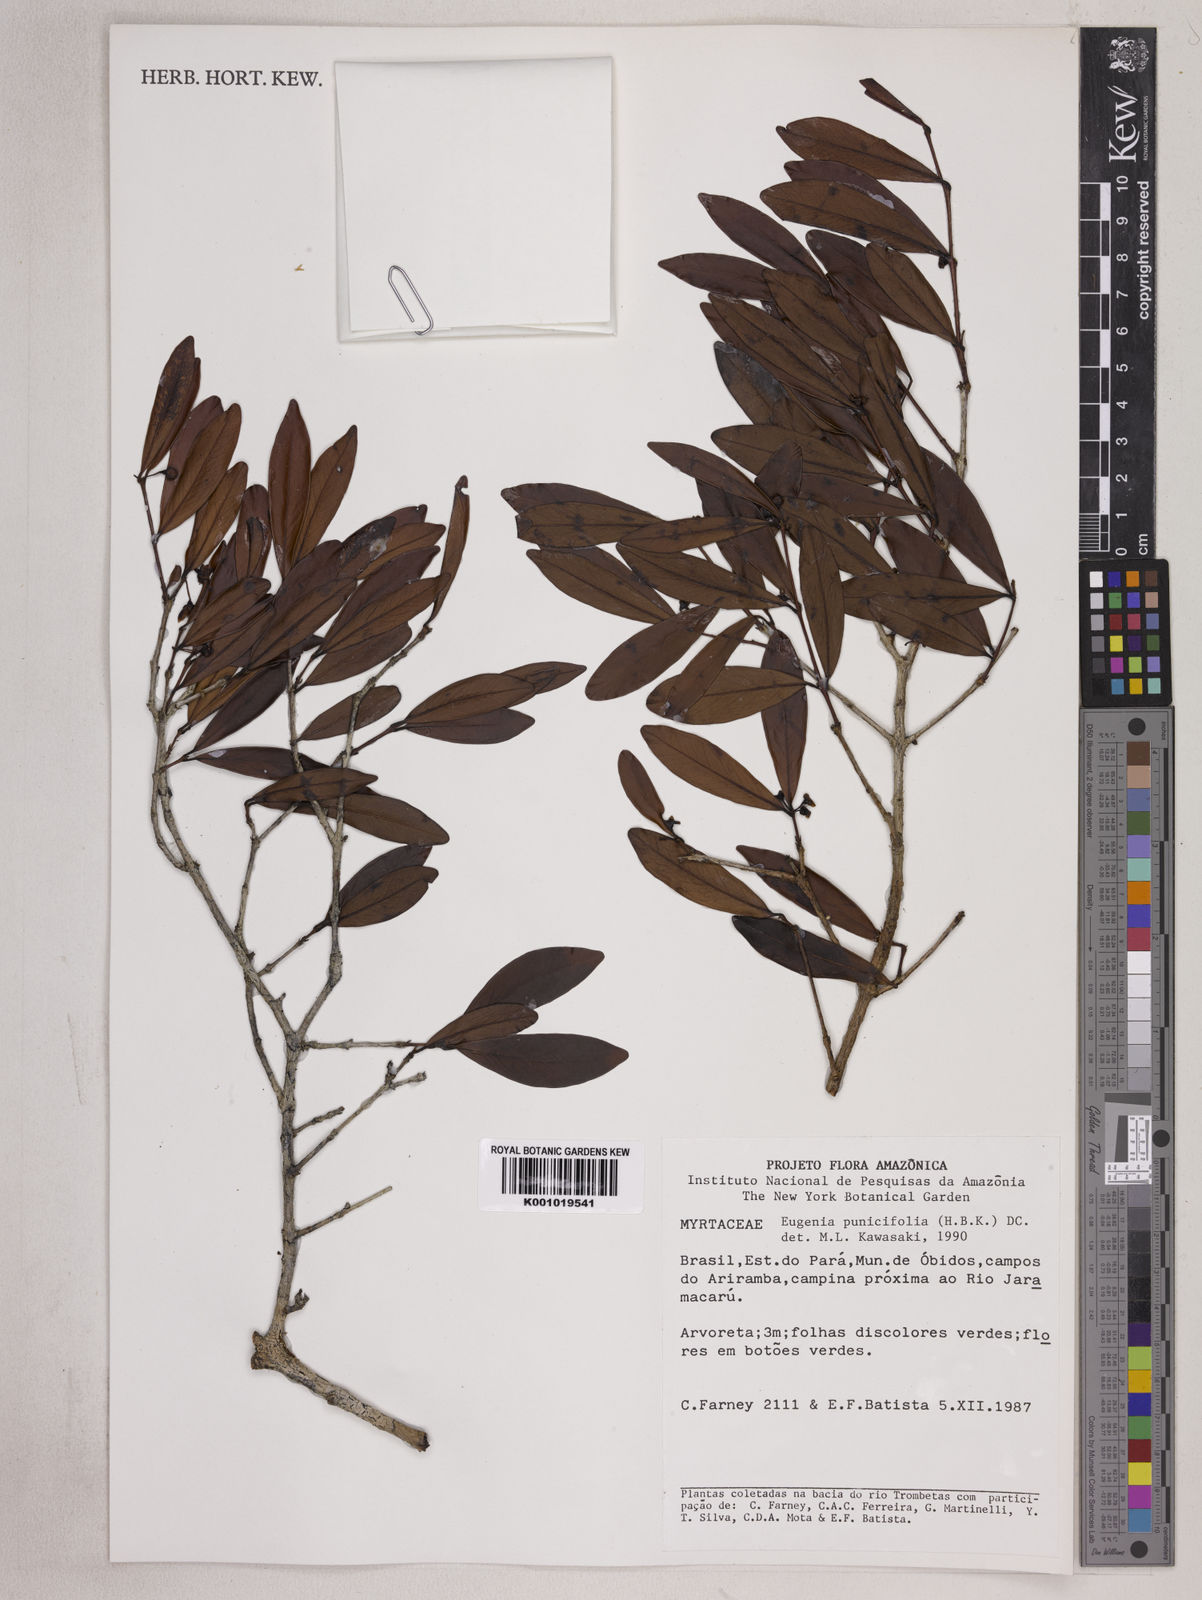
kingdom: Plantae
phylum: Tracheophyta
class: Magnoliopsida
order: Myrtales
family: Myrtaceae
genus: Eugenia
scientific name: Eugenia punicifolia
